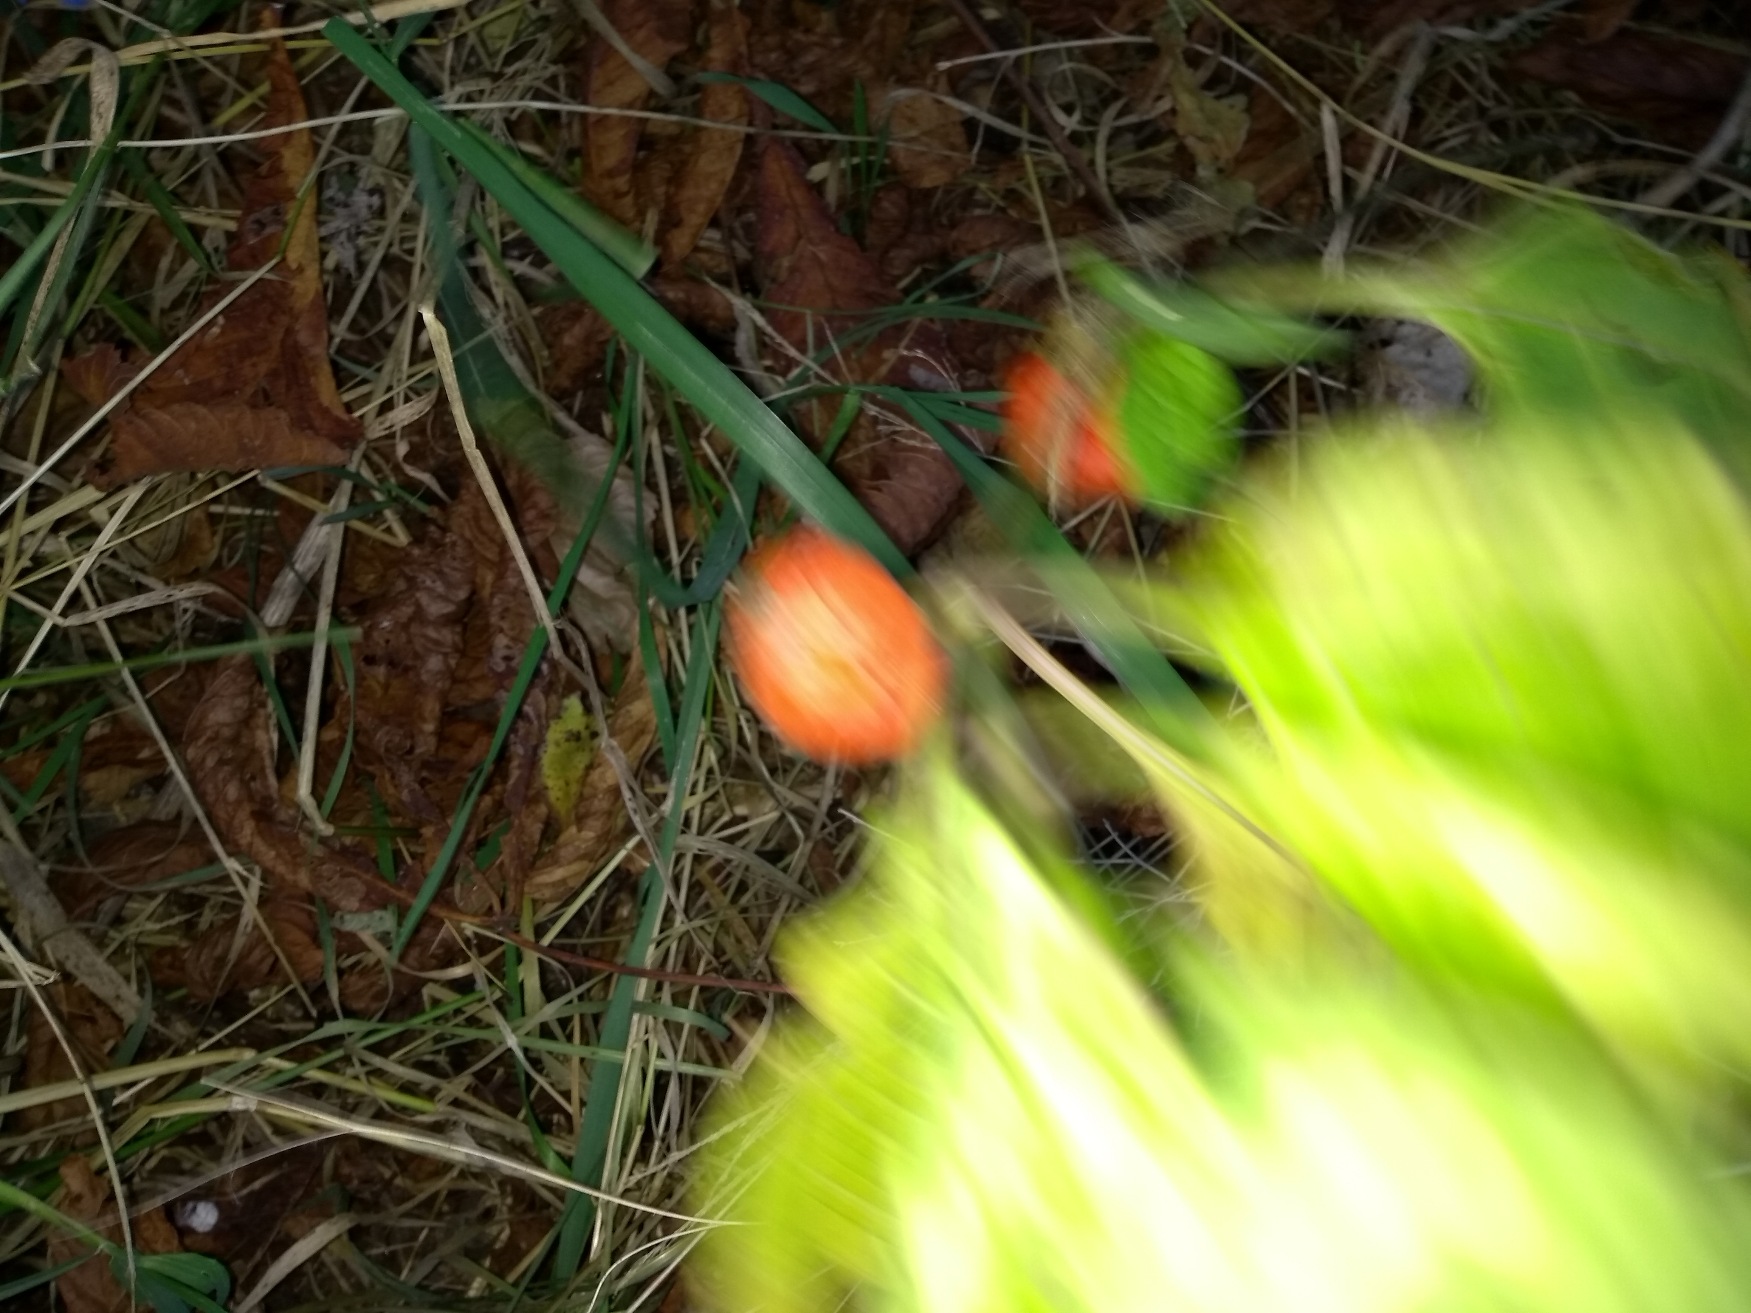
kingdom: Plantae
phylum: Tracheophyta
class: Magnoliopsida
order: Solanales
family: Solanaceae
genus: Alkekengi
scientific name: Alkekengi officinarum
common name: Jødekirsebær
